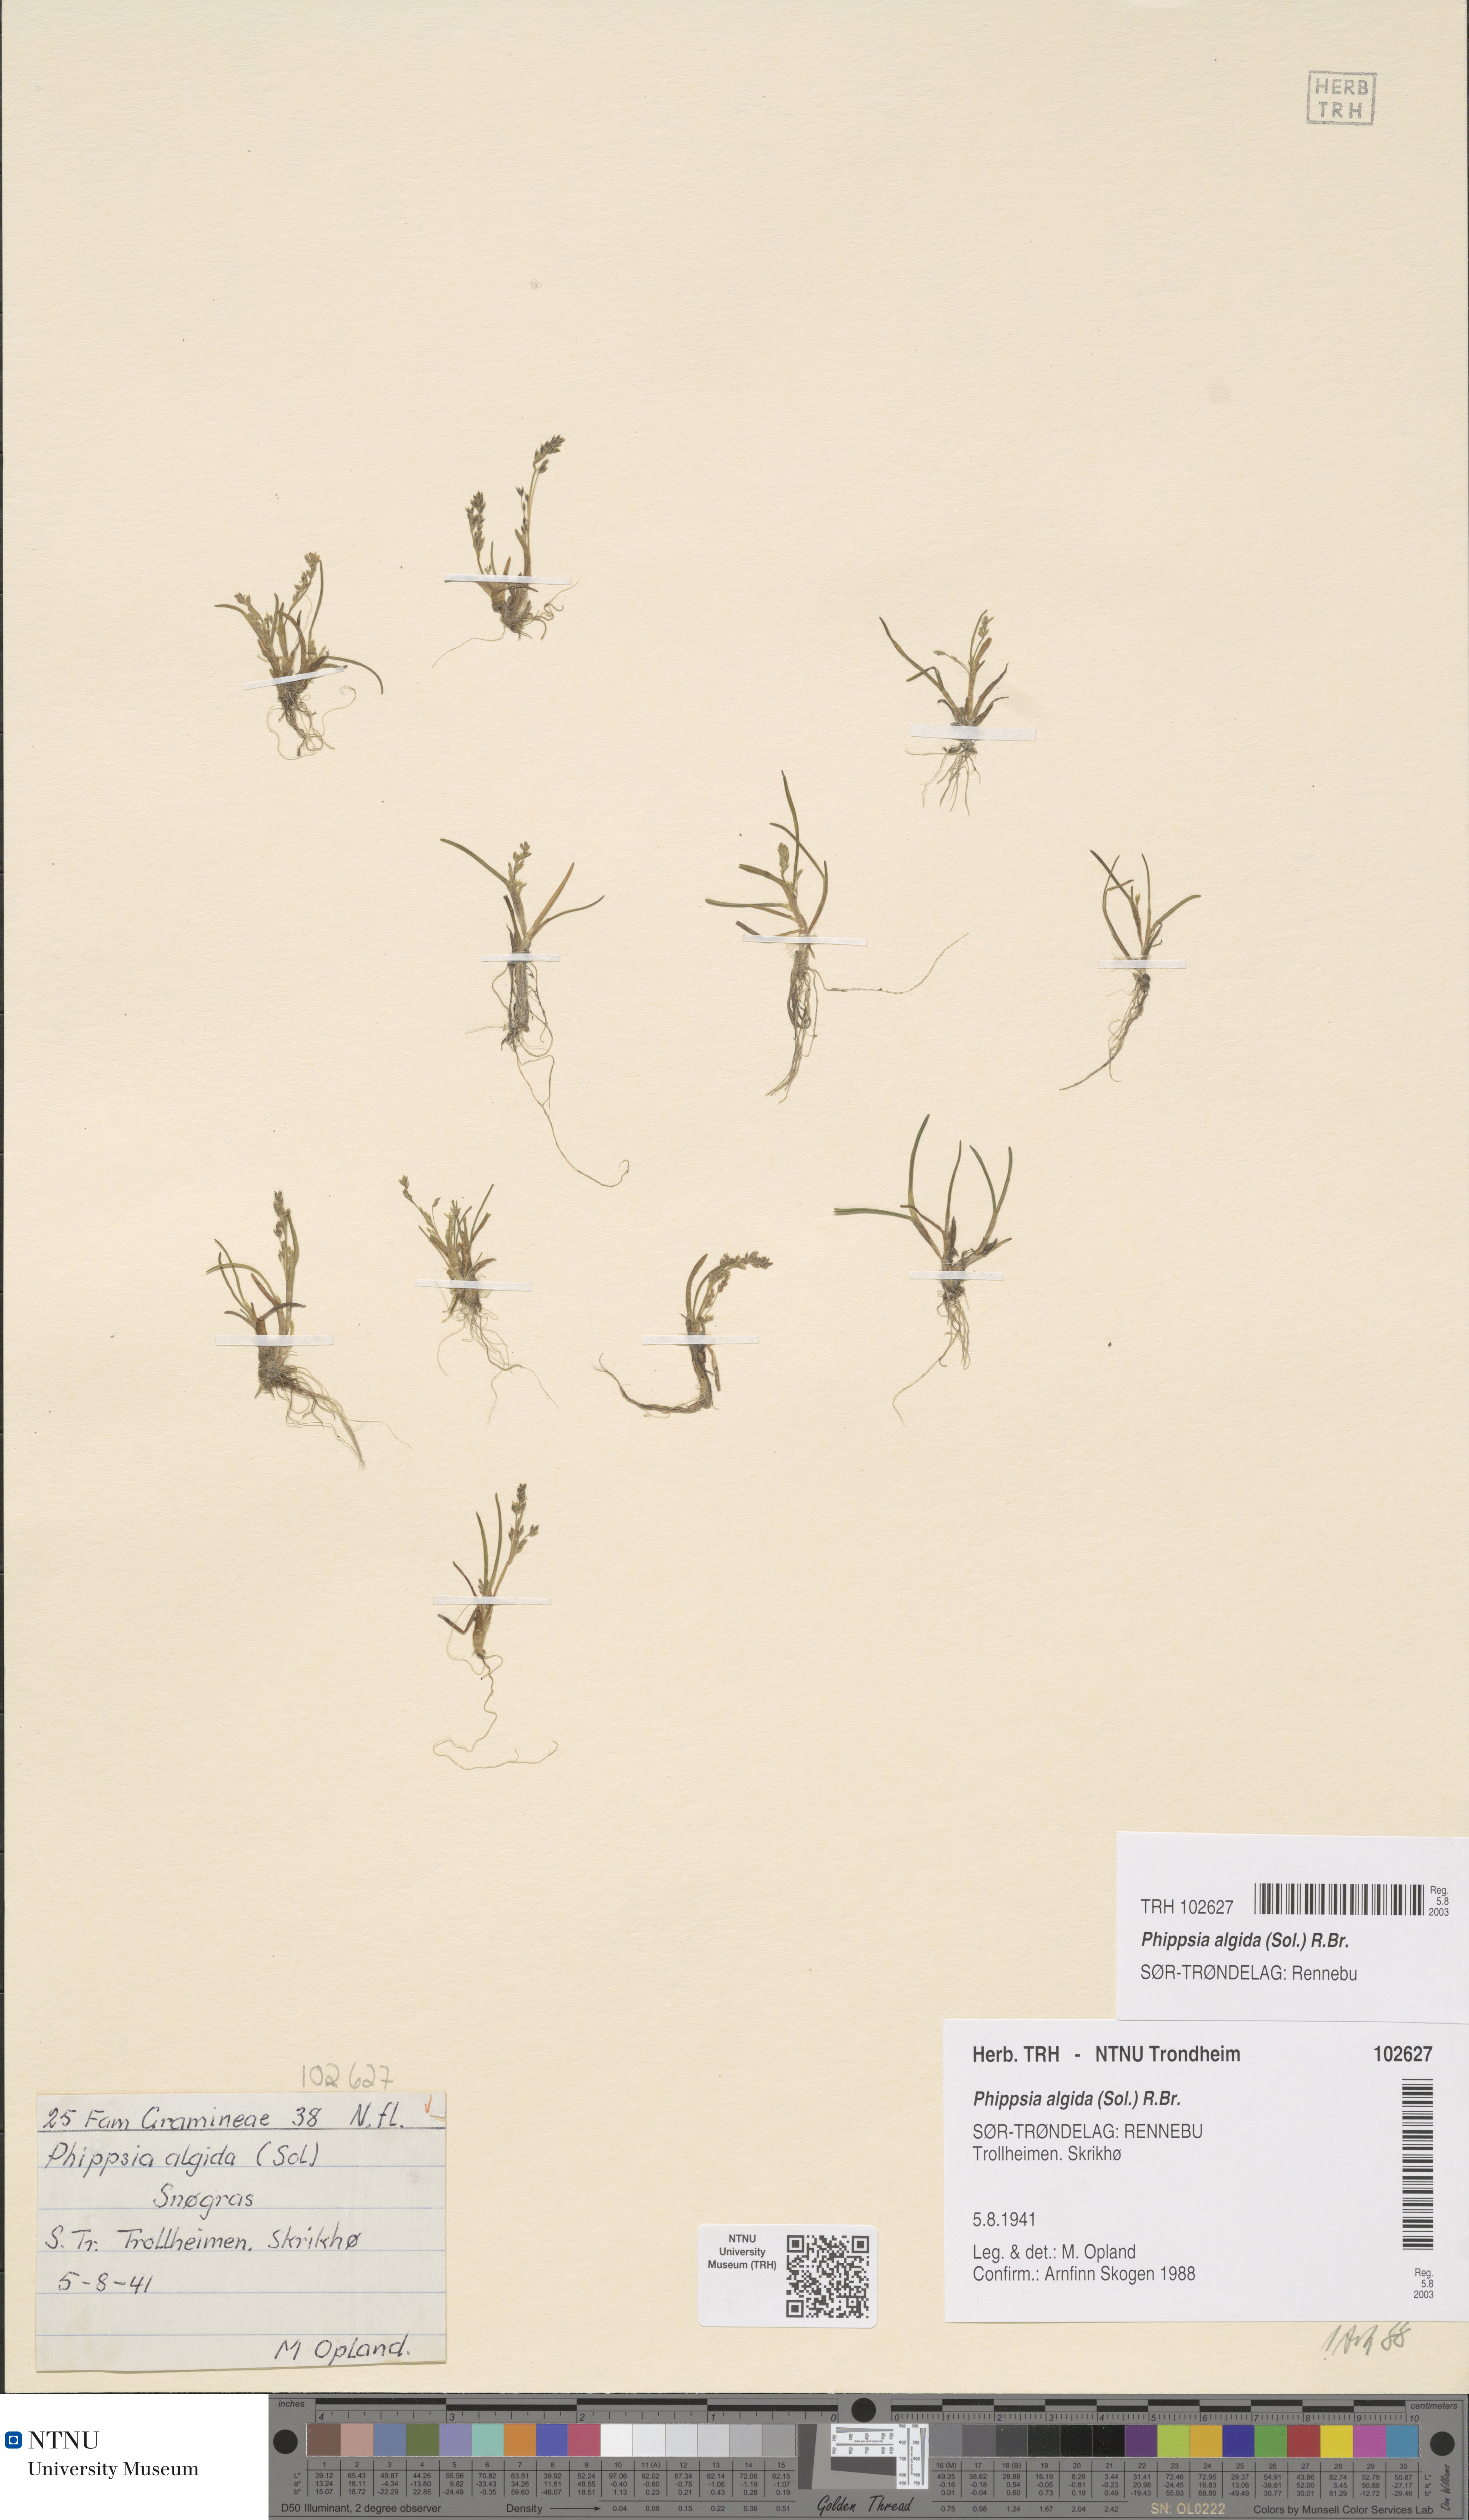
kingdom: Plantae
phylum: Tracheophyta
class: Liliopsida
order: Poales
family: Poaceae
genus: Phippsia
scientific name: Phippsia algida
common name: Ice grass
